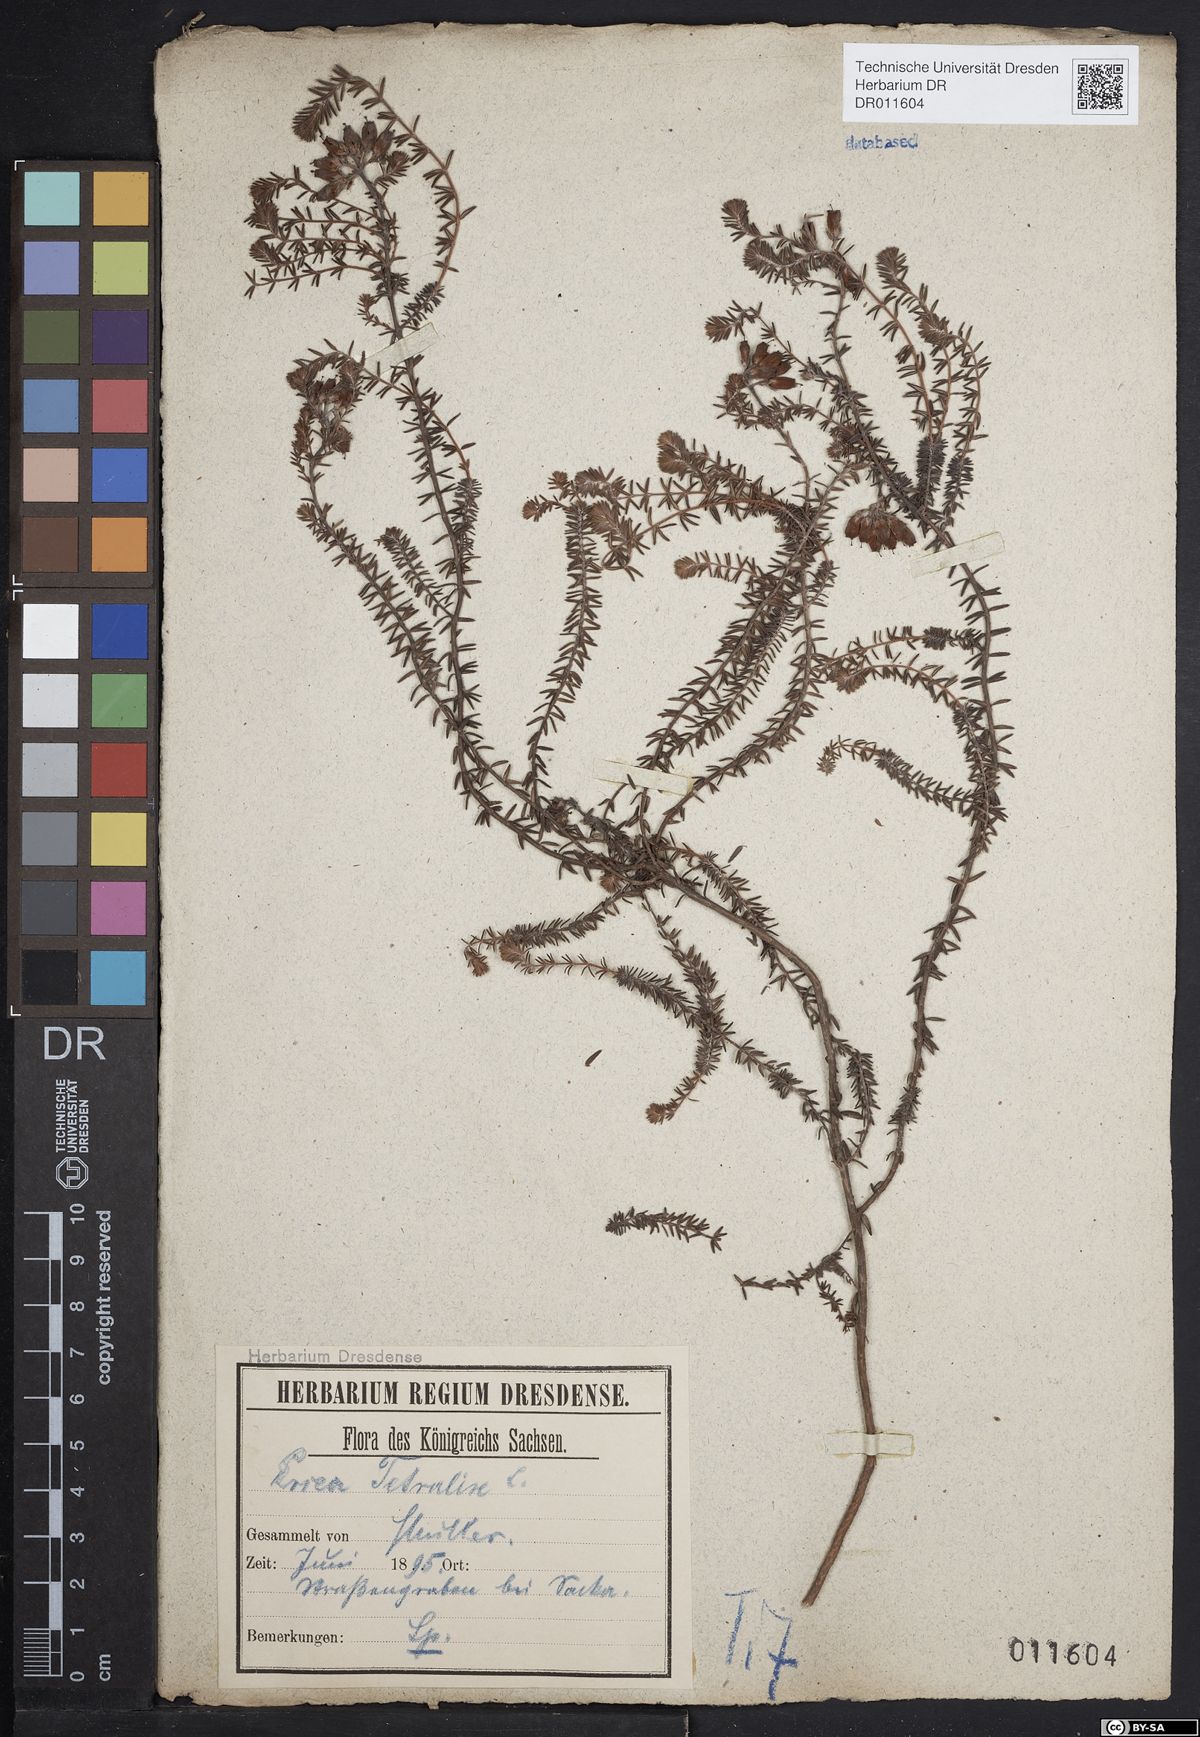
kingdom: Plantae
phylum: Tracheophyta
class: Magnoliopsida
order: Ericales
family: Ericaceae
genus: Erica
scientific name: Erica tetralix
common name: Cross-leaved heath
